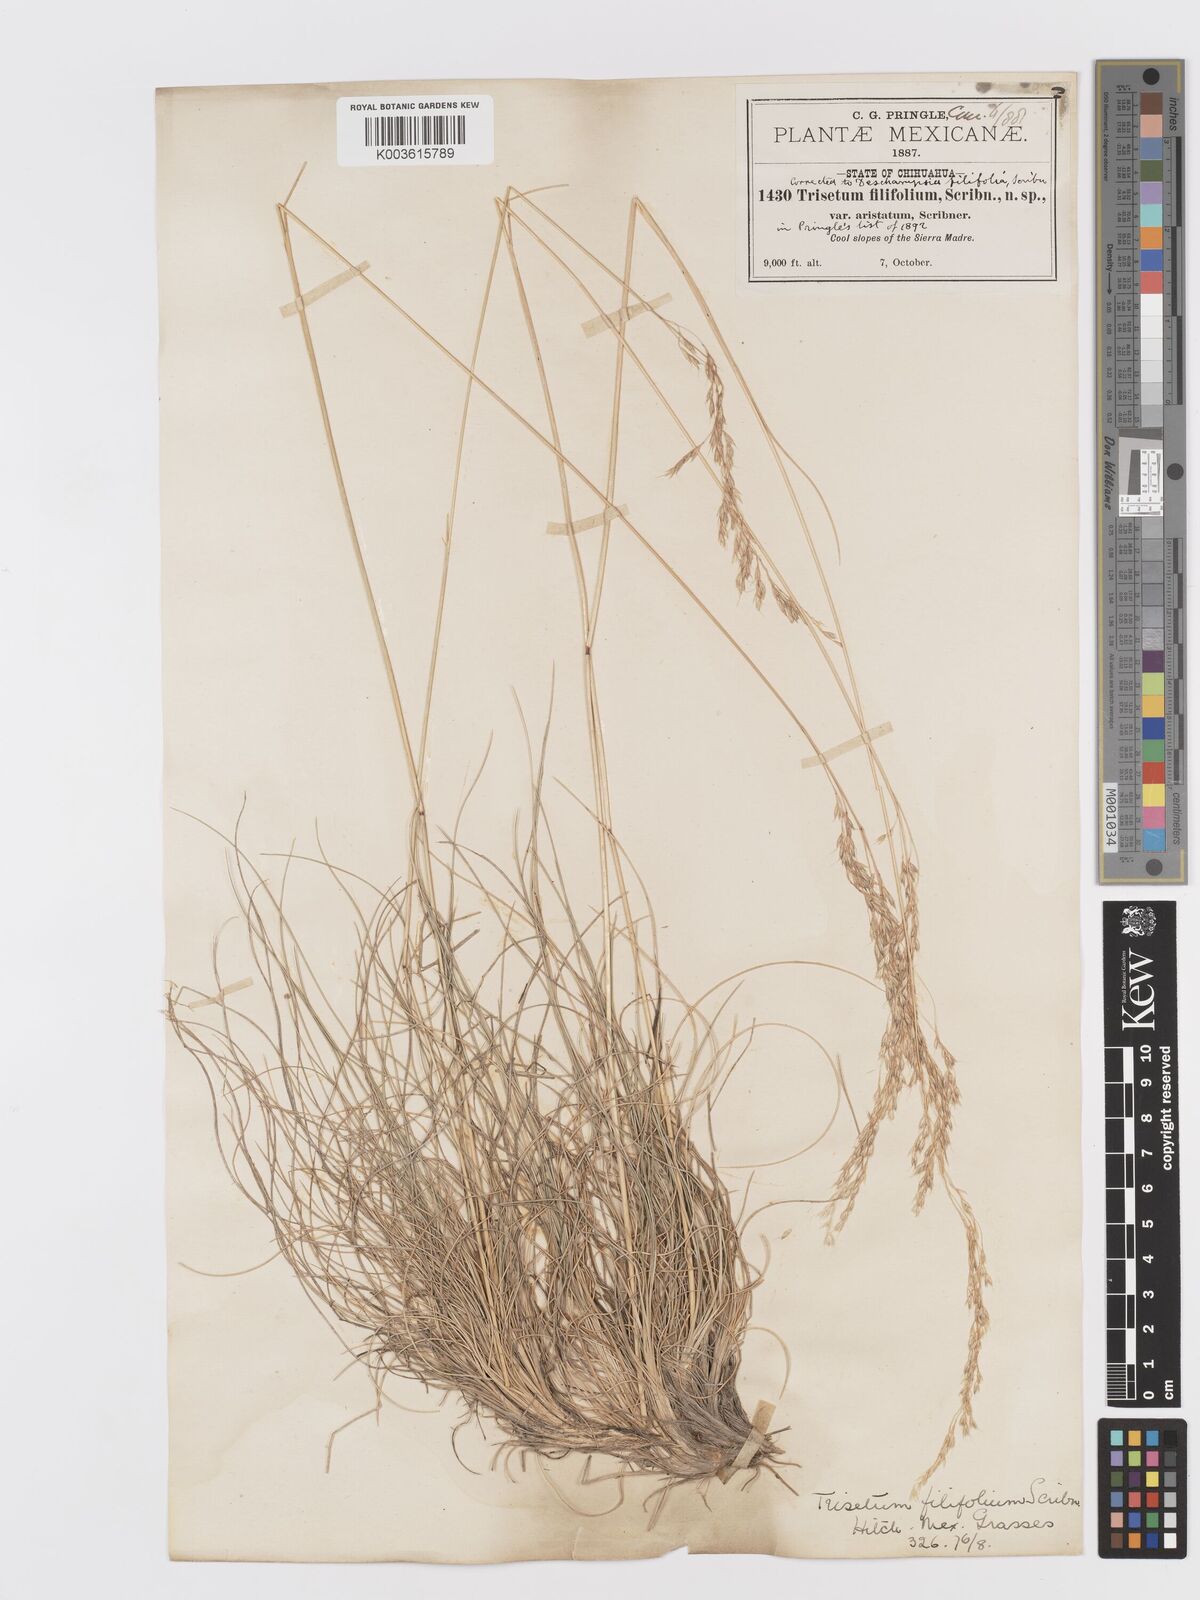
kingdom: Plantae
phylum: Tracheophyta
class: Liliopsida
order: Poales
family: Poaceae
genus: Peyritschia
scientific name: Peyritschia filifolia
